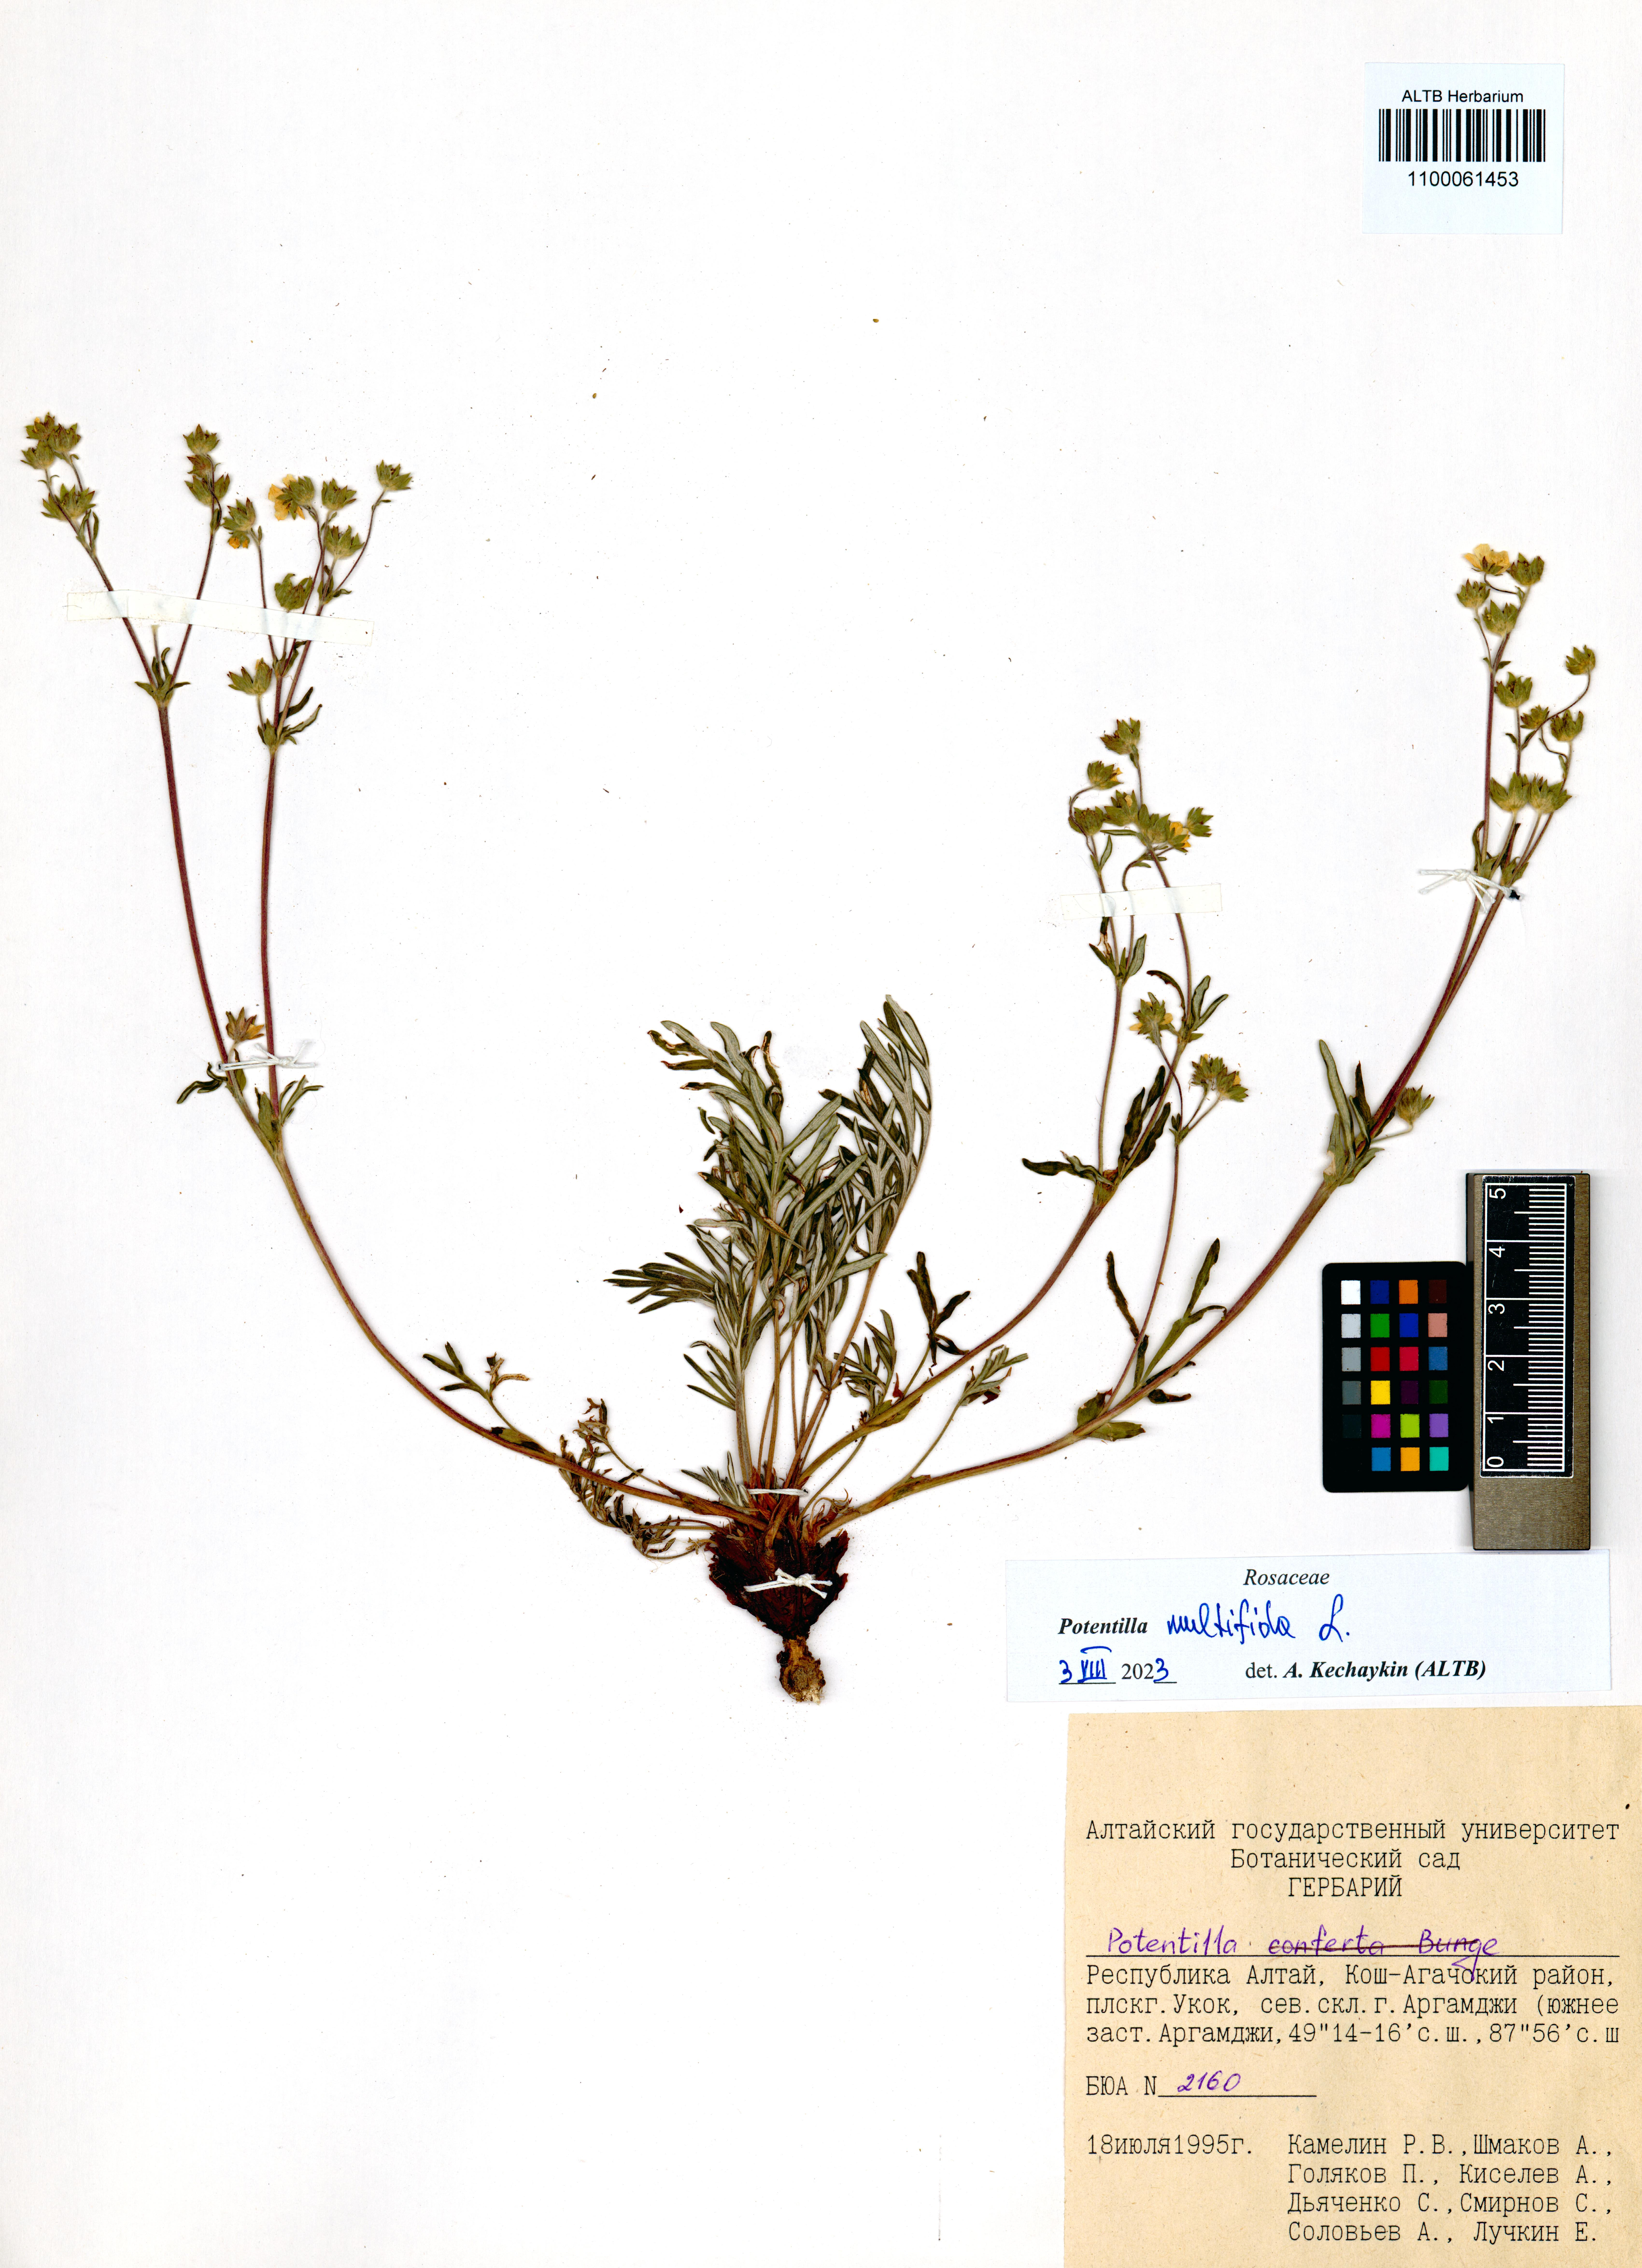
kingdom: Plantae
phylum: Tracheophyta
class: Magnoliopsida
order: Rosales
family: Rosaceae
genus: Potentilla
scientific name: Potentilla multifida
